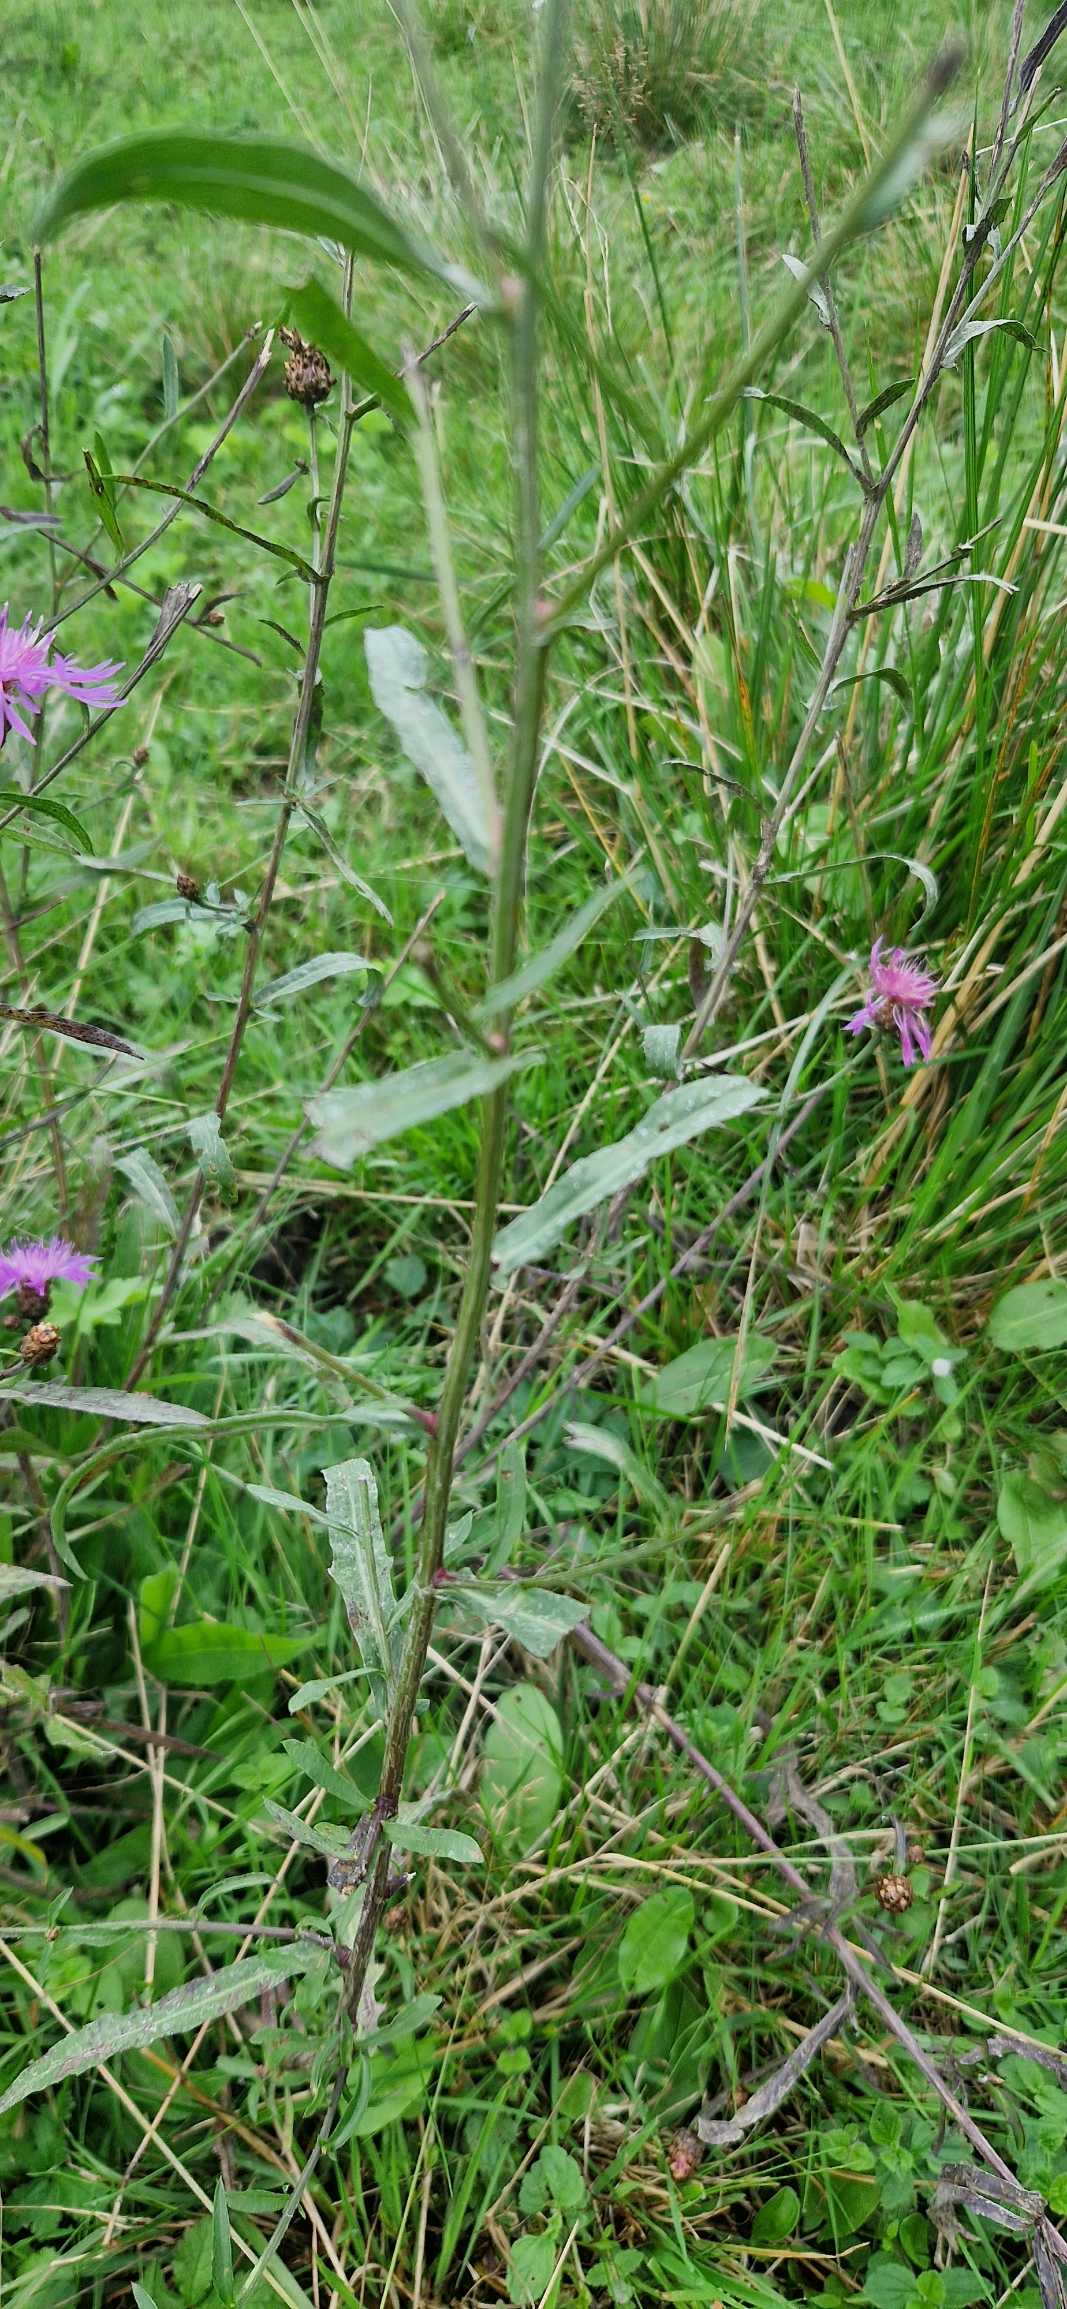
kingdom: Plantae
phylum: Tracheophyta
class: Magnoliopsida
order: Asterales
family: Asteraceae
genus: Centaurea
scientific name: Centaurea jacea
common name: Almindelig knopurt
